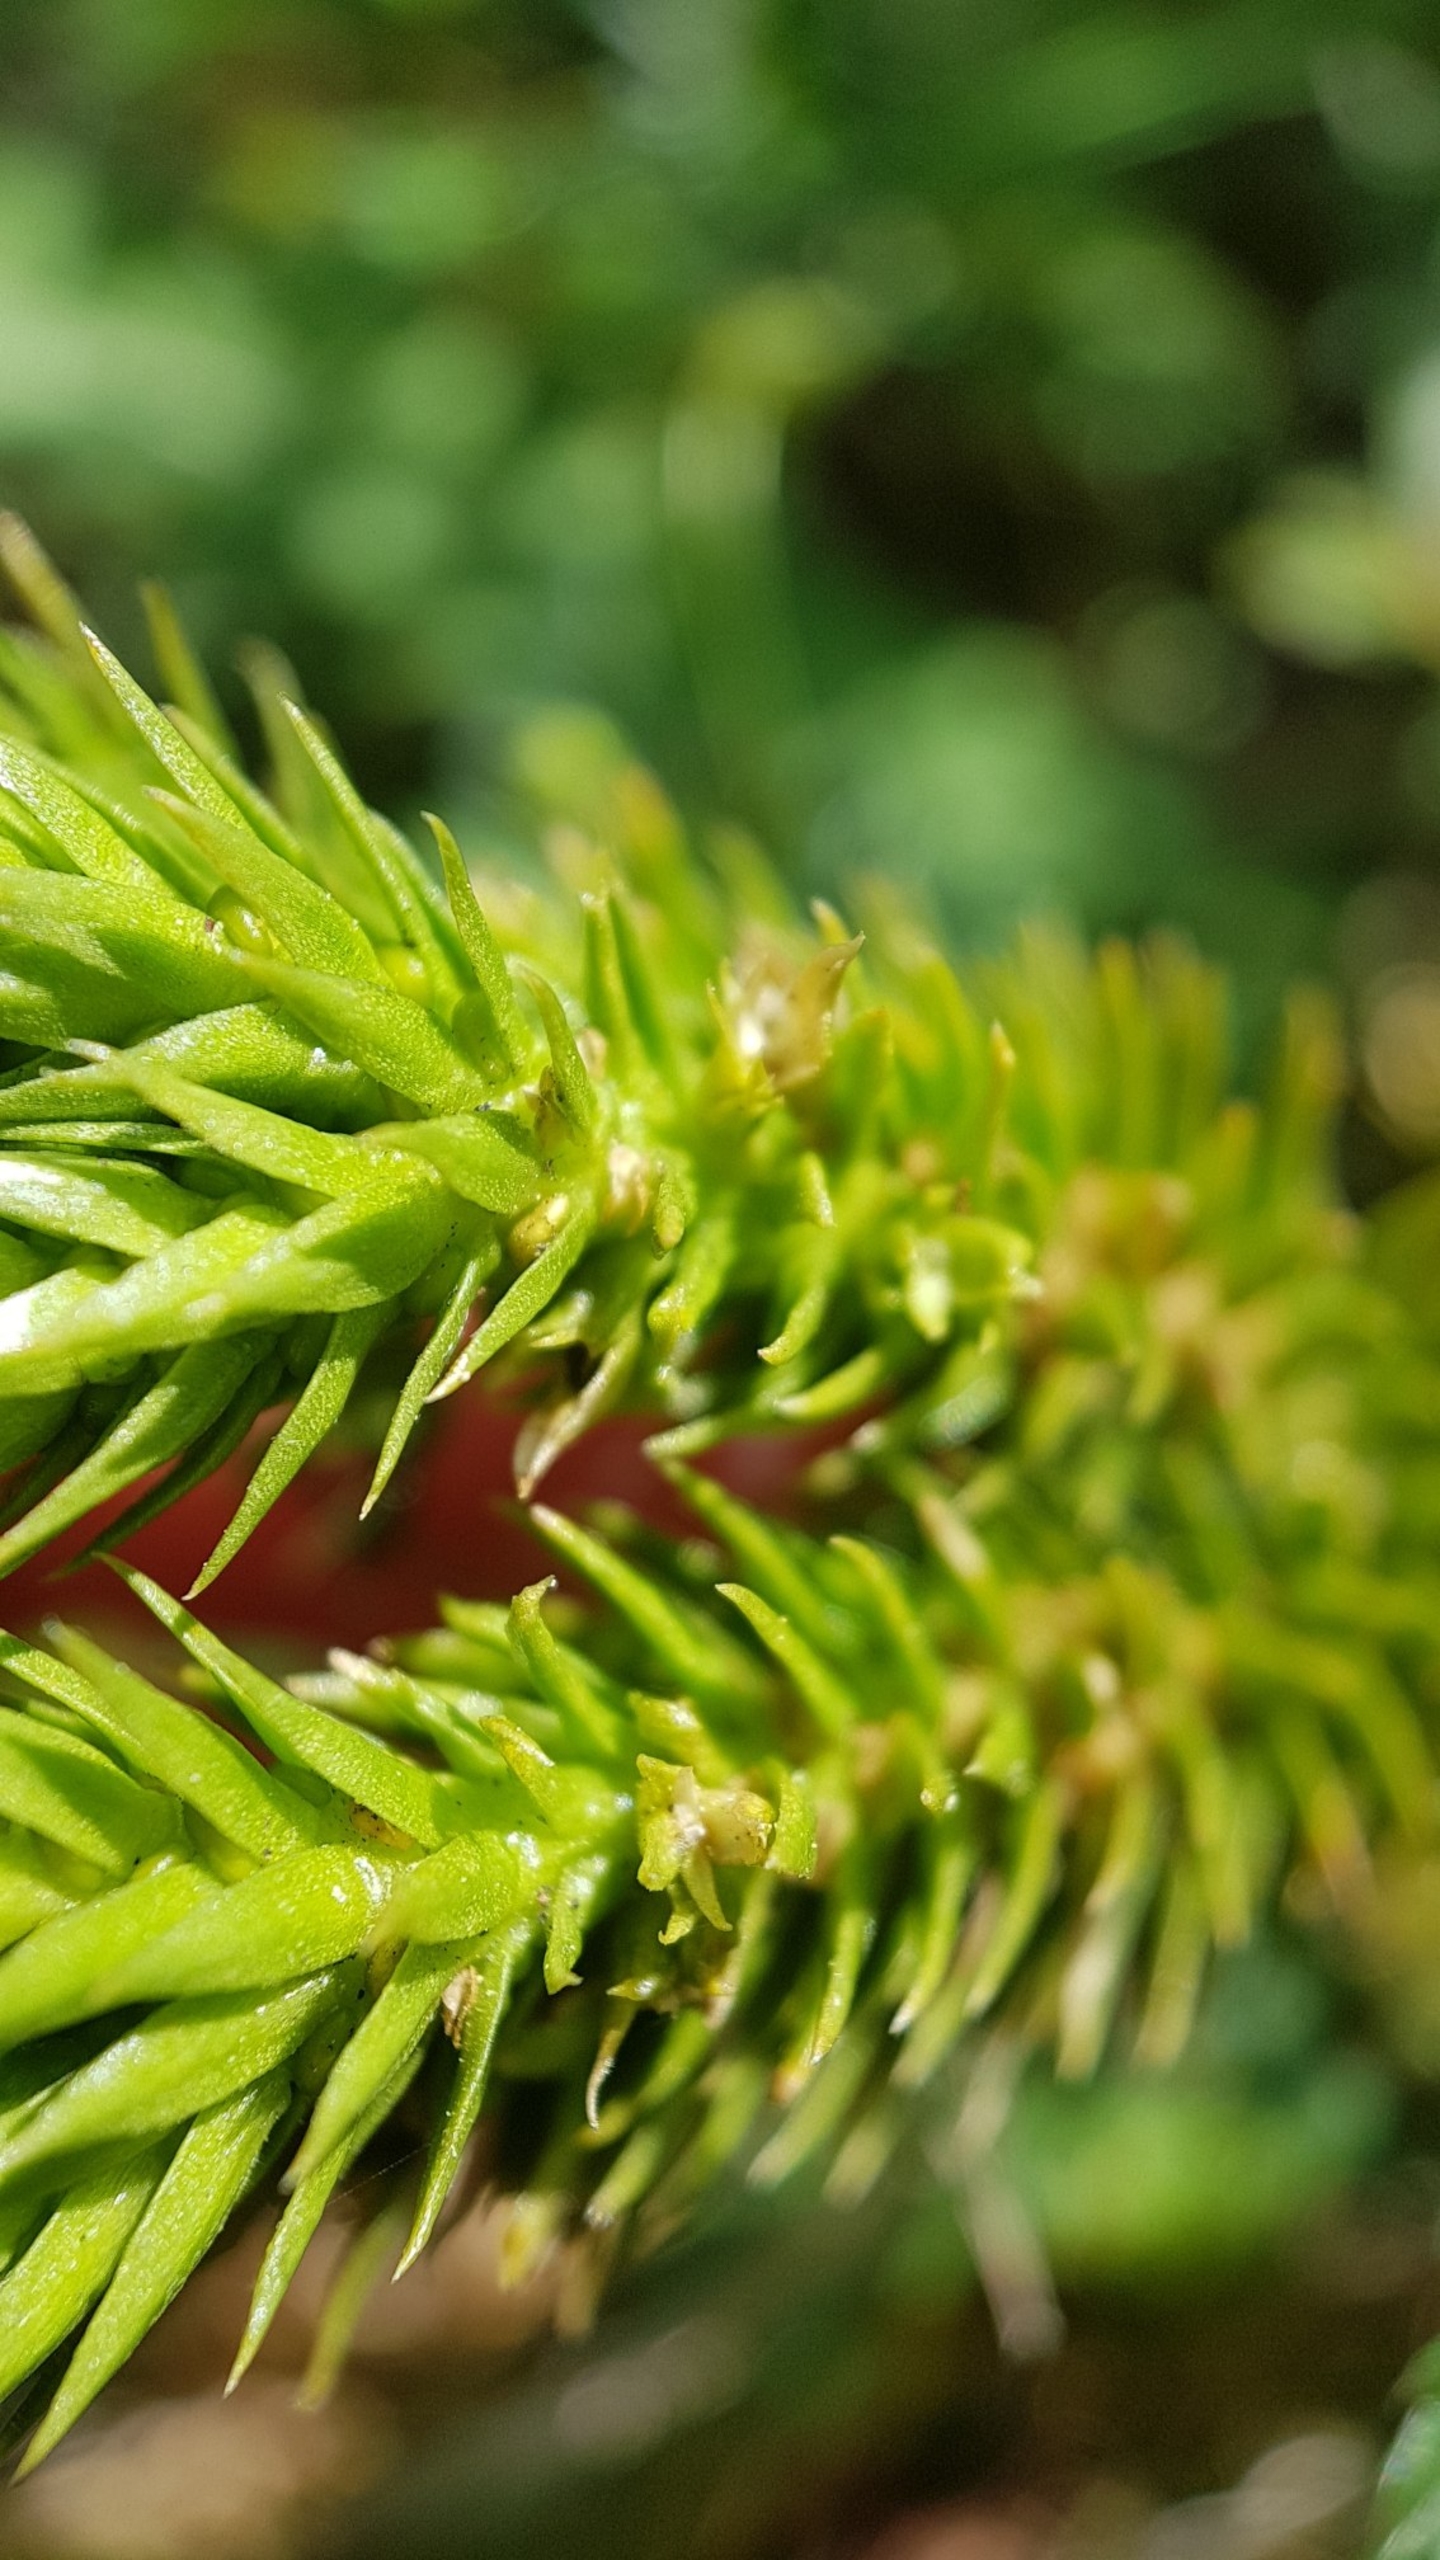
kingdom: Plantae
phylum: Tracheophyta
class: Lycopodiopsida
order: Lycopodiales
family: Lycopodiaceae
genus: Huperzia
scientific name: Huperzia selago
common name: Otteradet ulvefod
